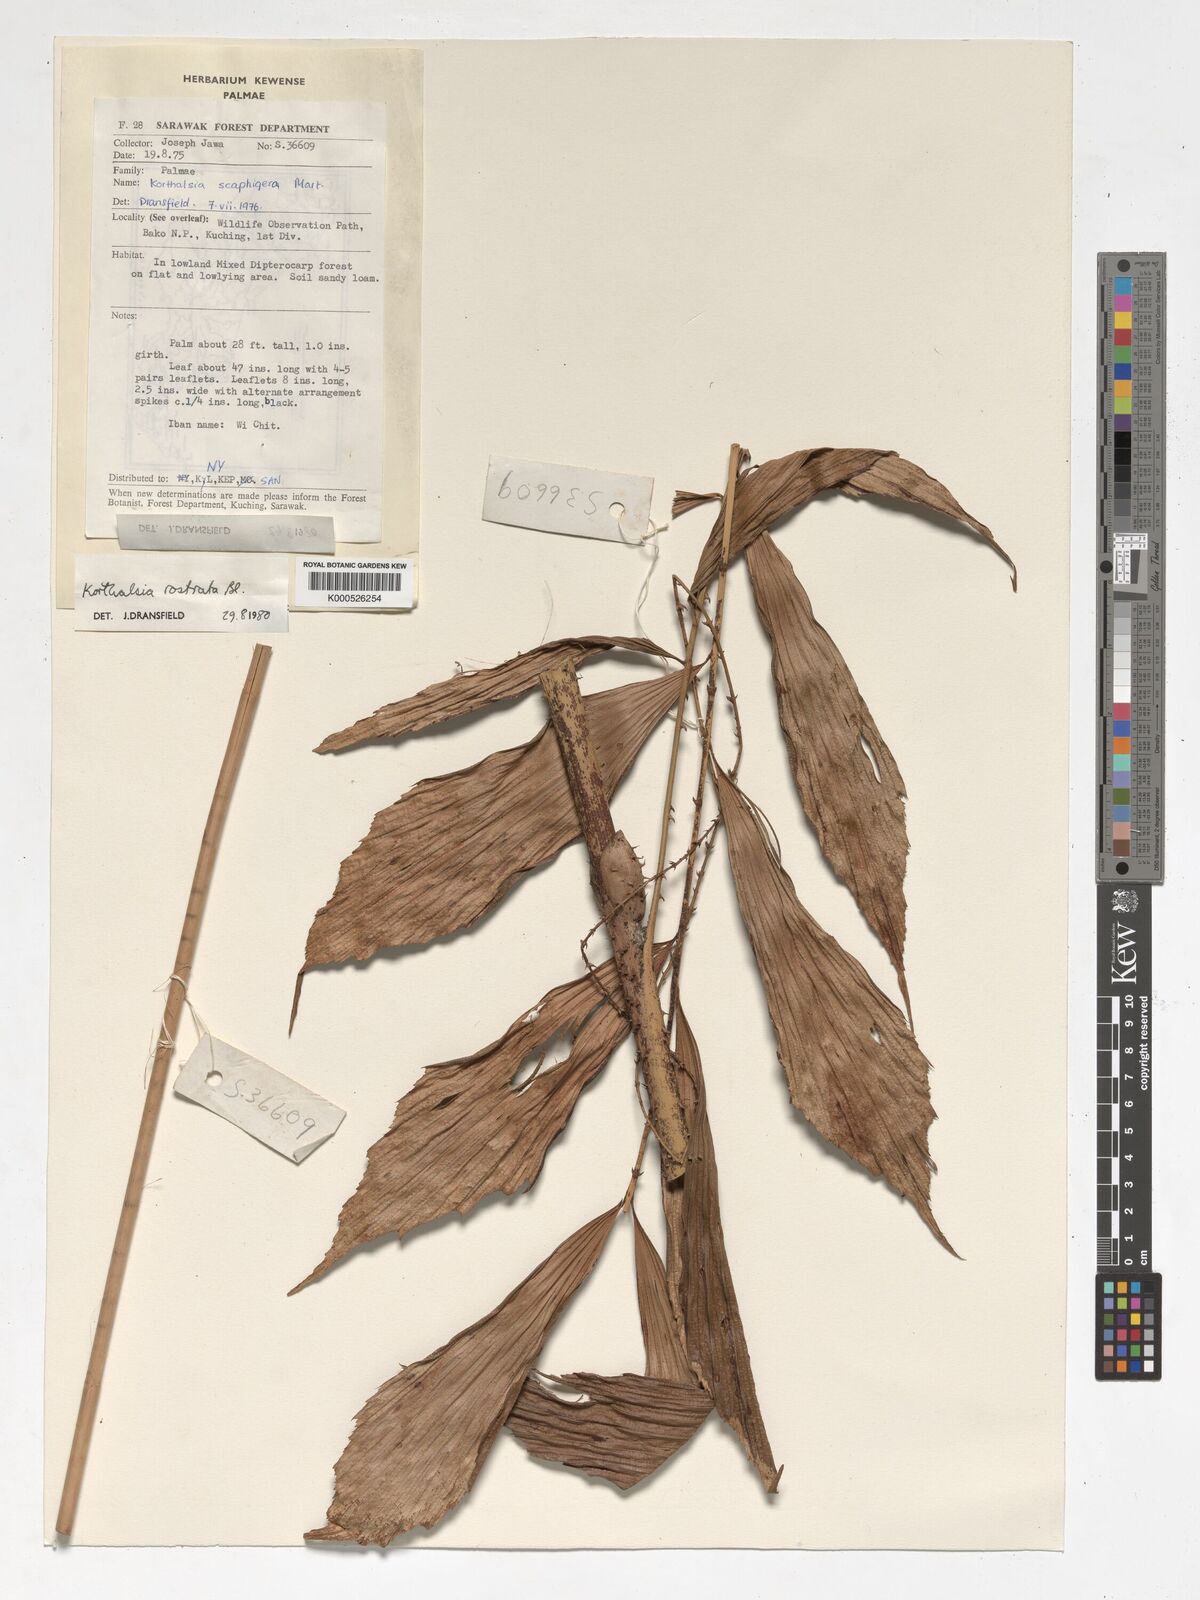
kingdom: Plantae
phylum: Tracheophyta
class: Liliopsida
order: Arecales
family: Arecaceae
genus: Korthalsia
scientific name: Korthalsia rostrata
